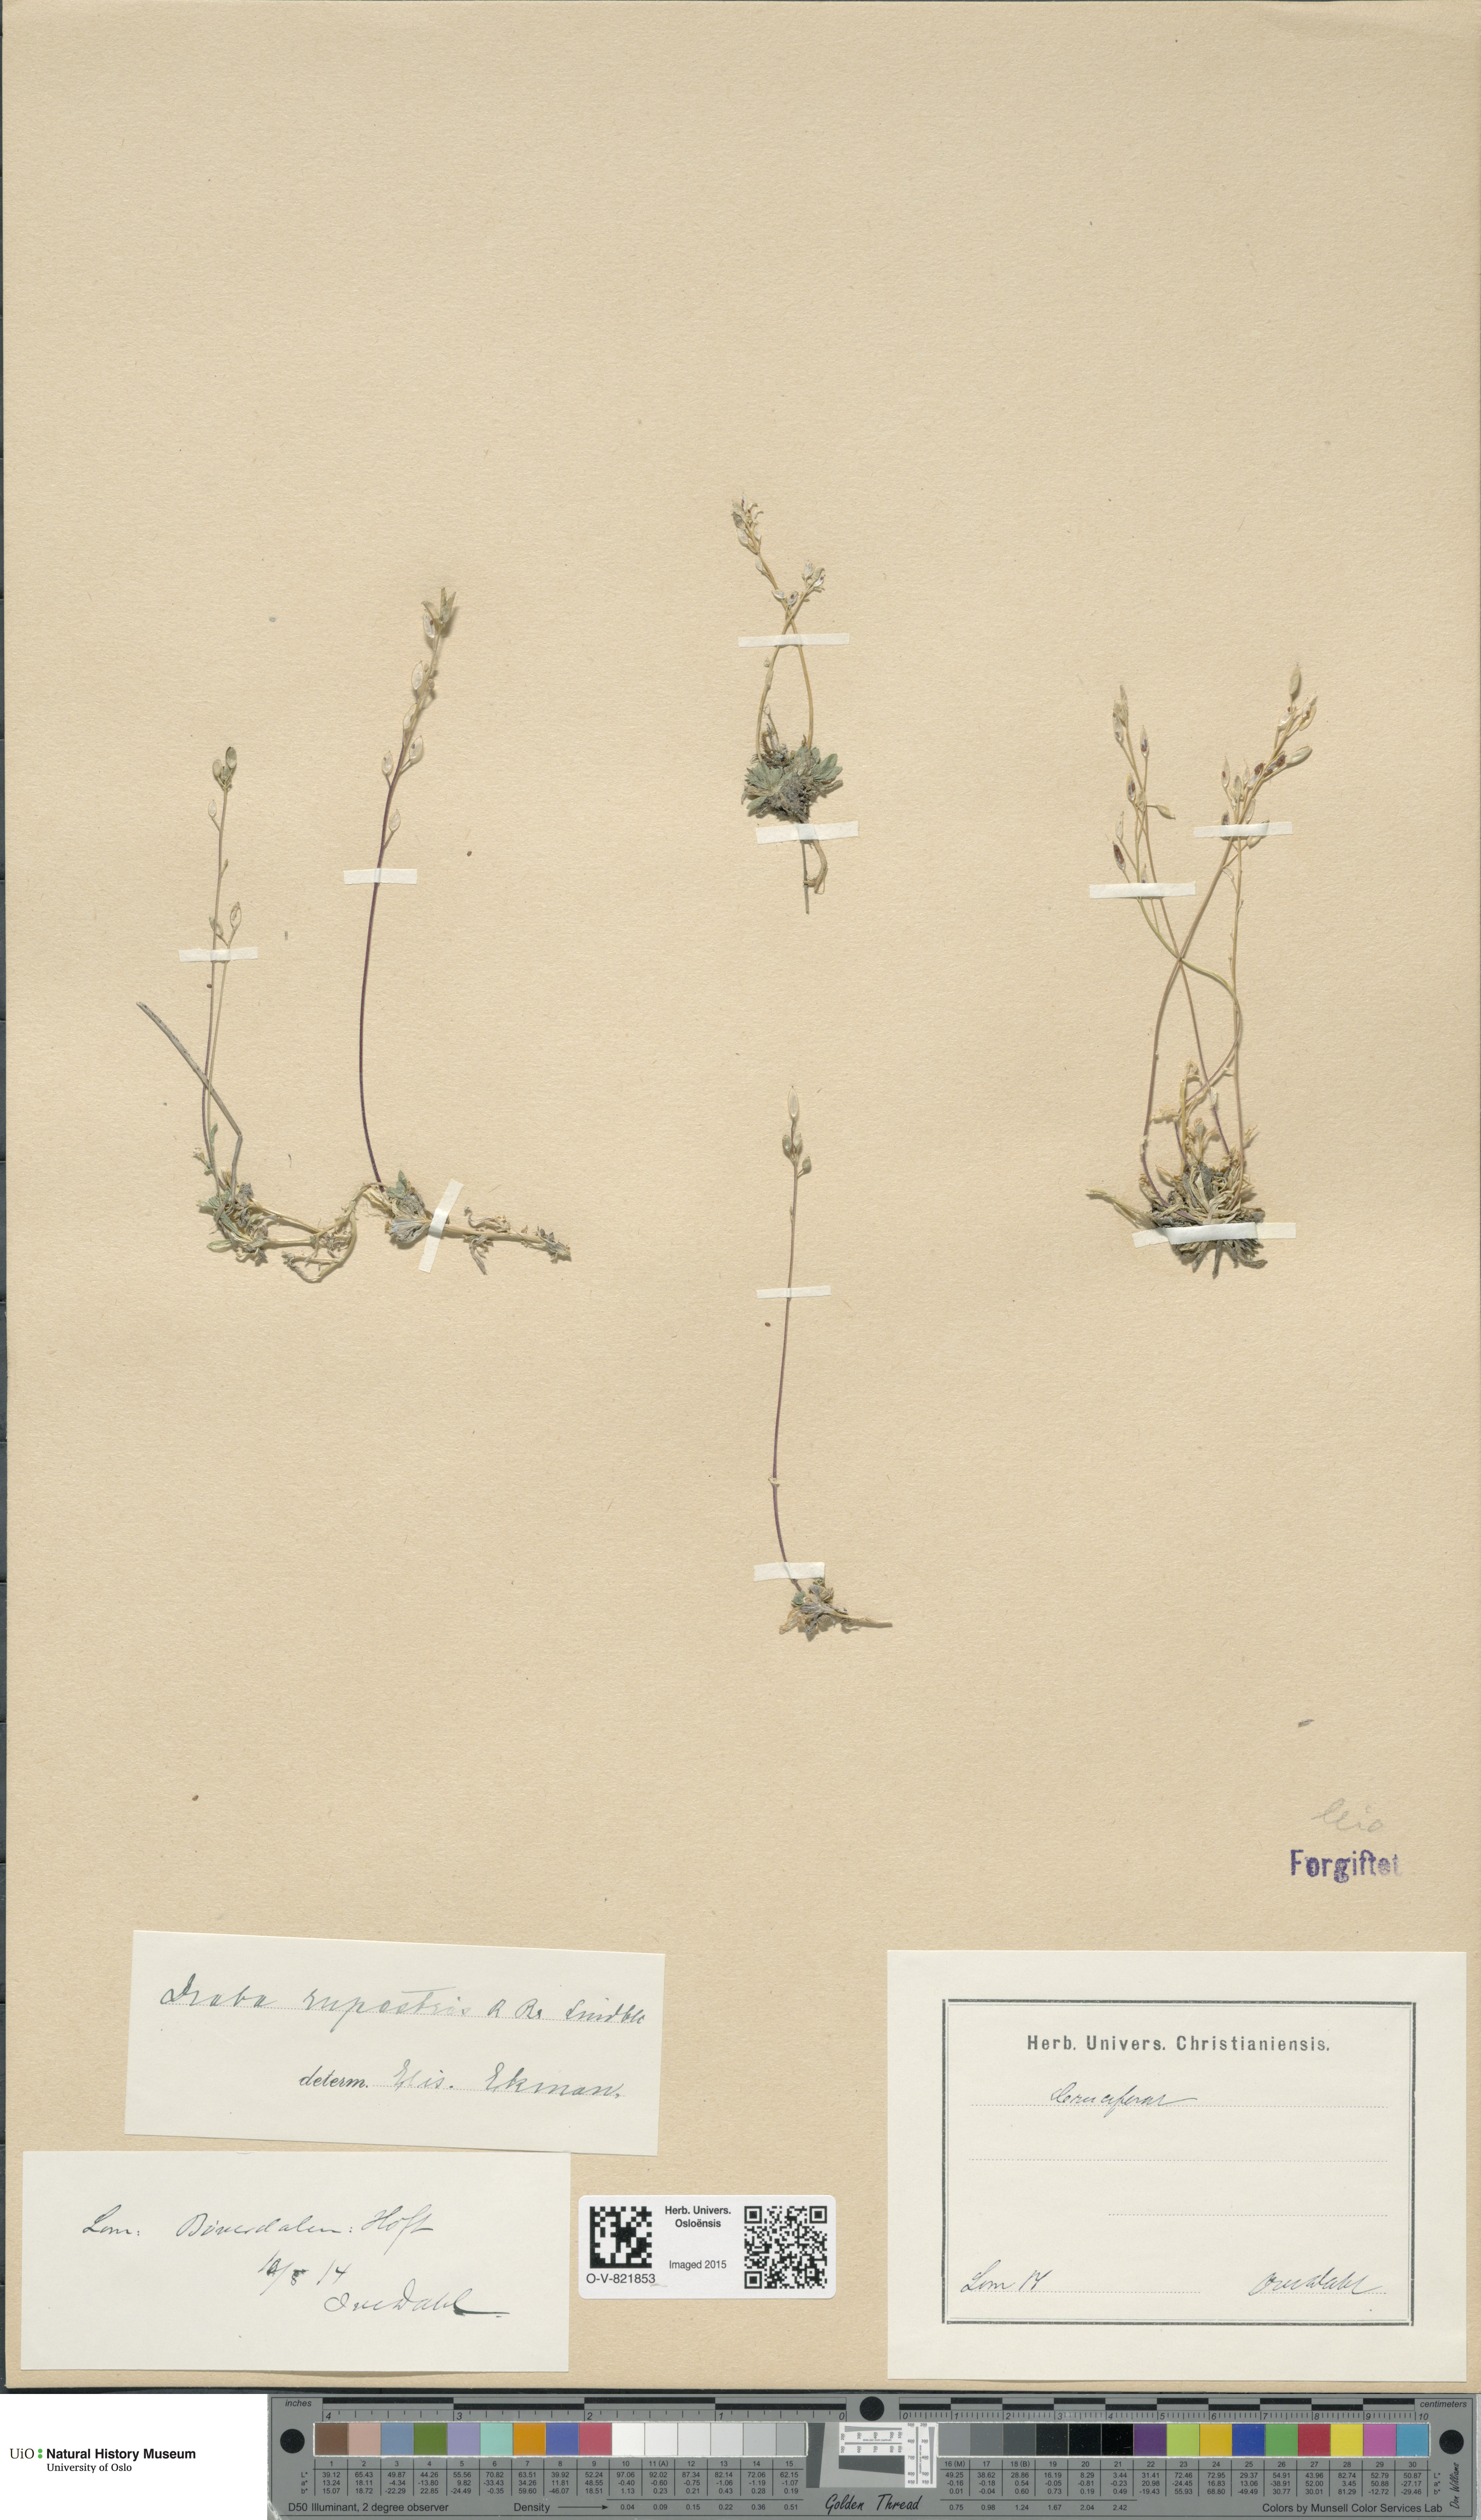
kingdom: Plantae
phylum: Tracheophyta
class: Magnoliopsida
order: Brassicales
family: Brassicaceae
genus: Draba
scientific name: Draba norvegica
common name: Rock whitlowgrass
